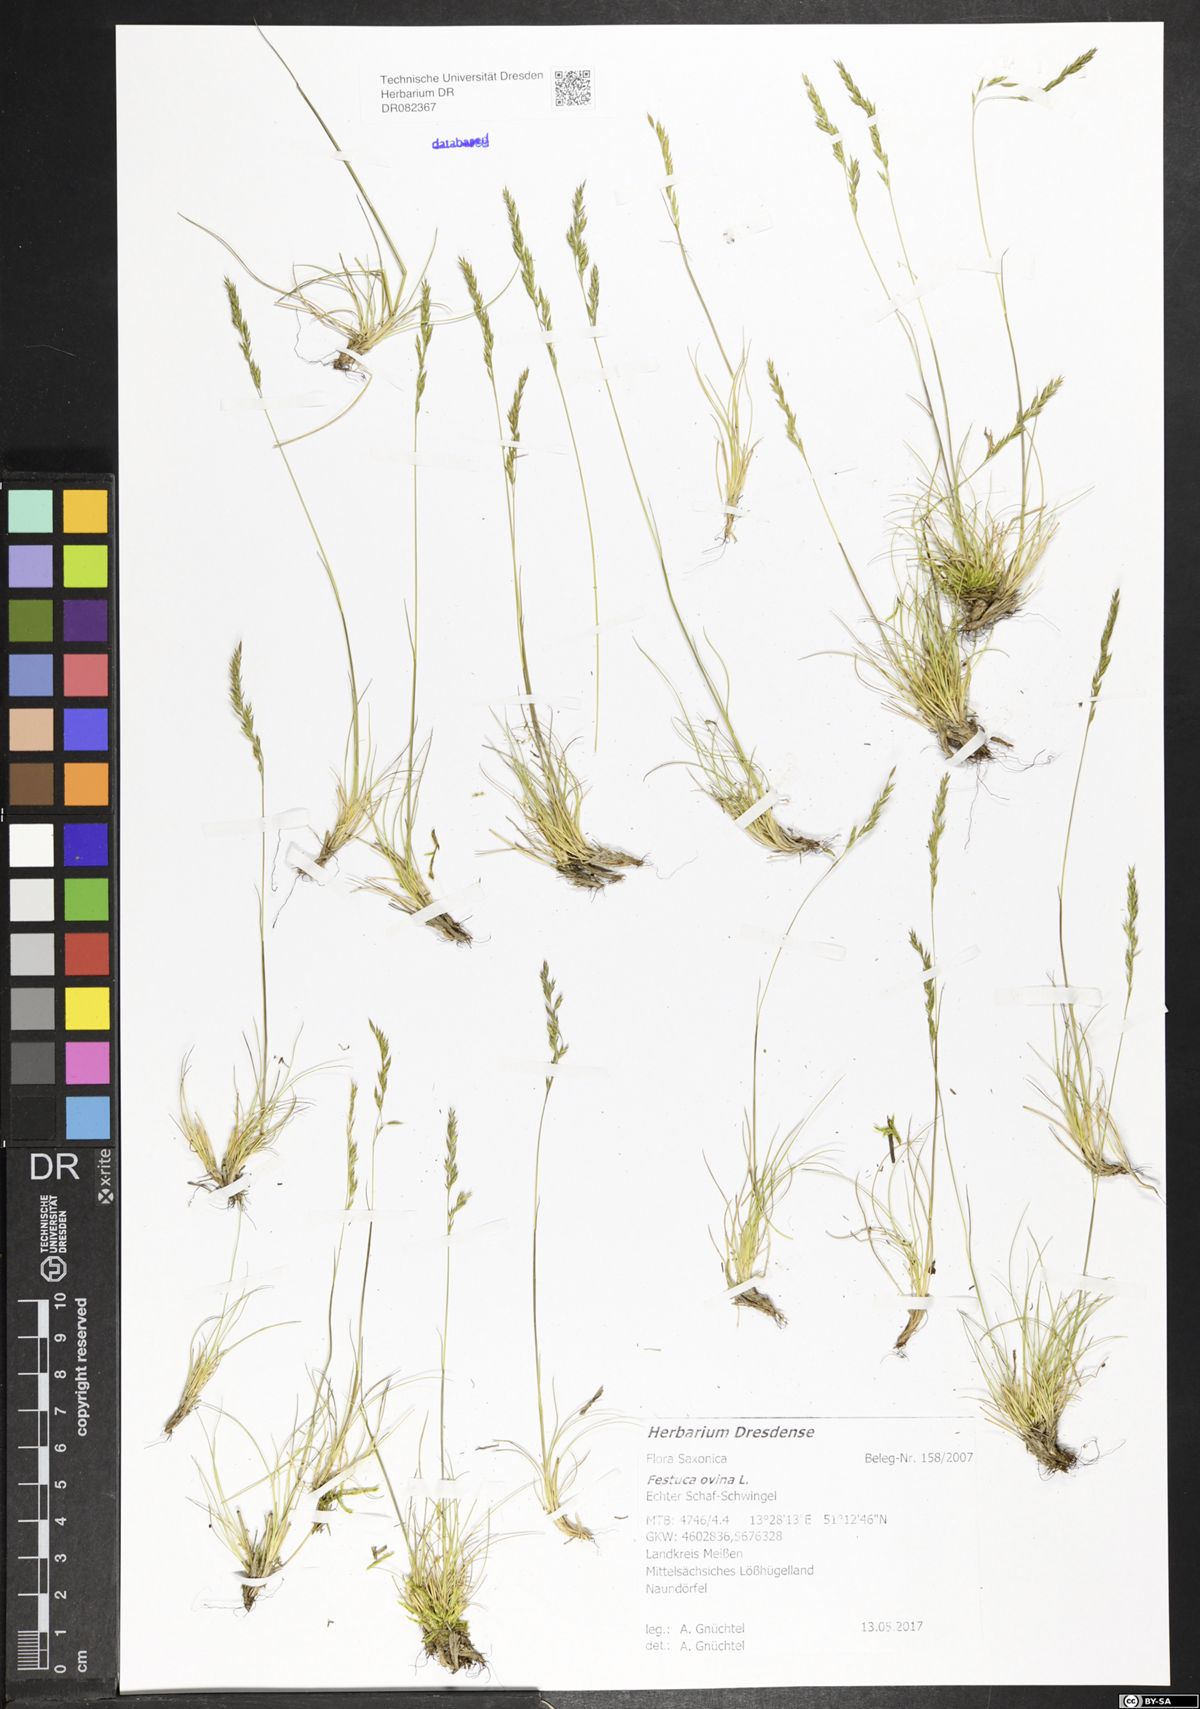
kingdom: Plantae
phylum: Tracheophyta
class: Magnoliopsida
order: Asterales
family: Asteraceae
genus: Senecio
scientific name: Senecio vernalis
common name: Eastern groundsel
